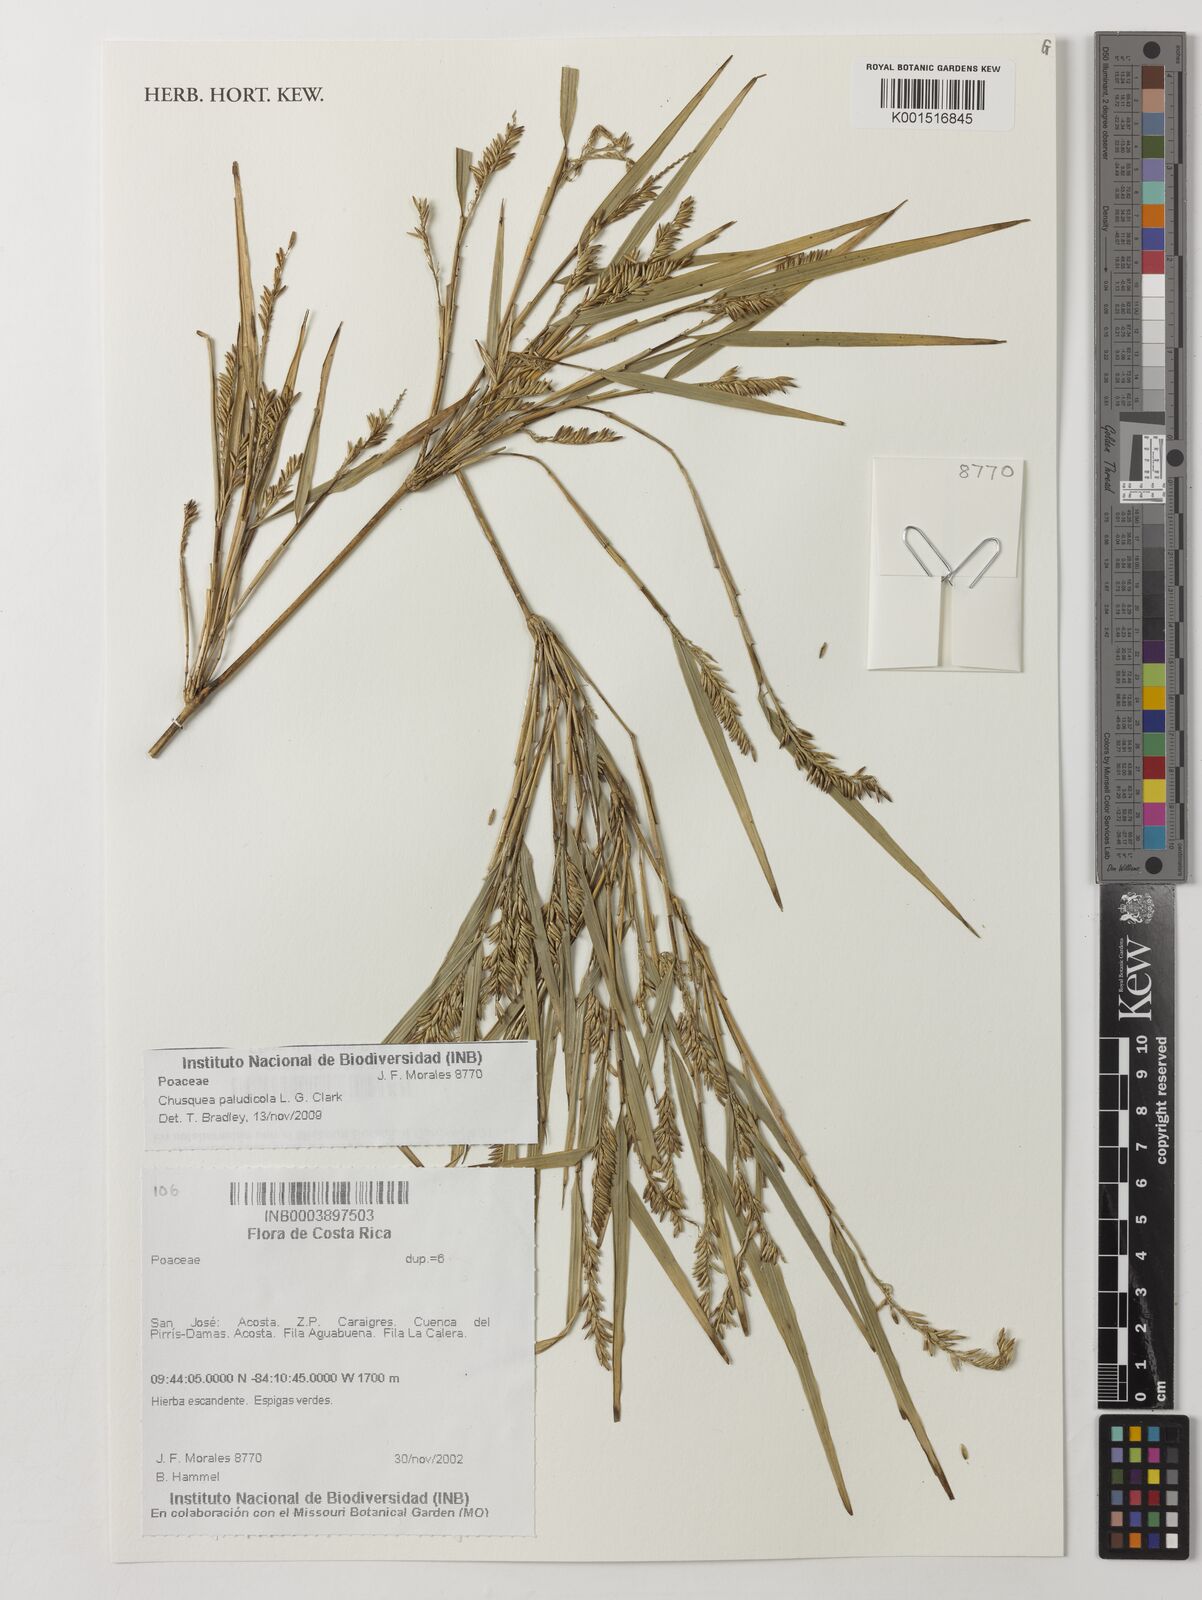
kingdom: Plantae
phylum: Tracheophyta
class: Liliopsida
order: Poales
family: Poaceae
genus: Chusquea
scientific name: Chusquea paludicola
